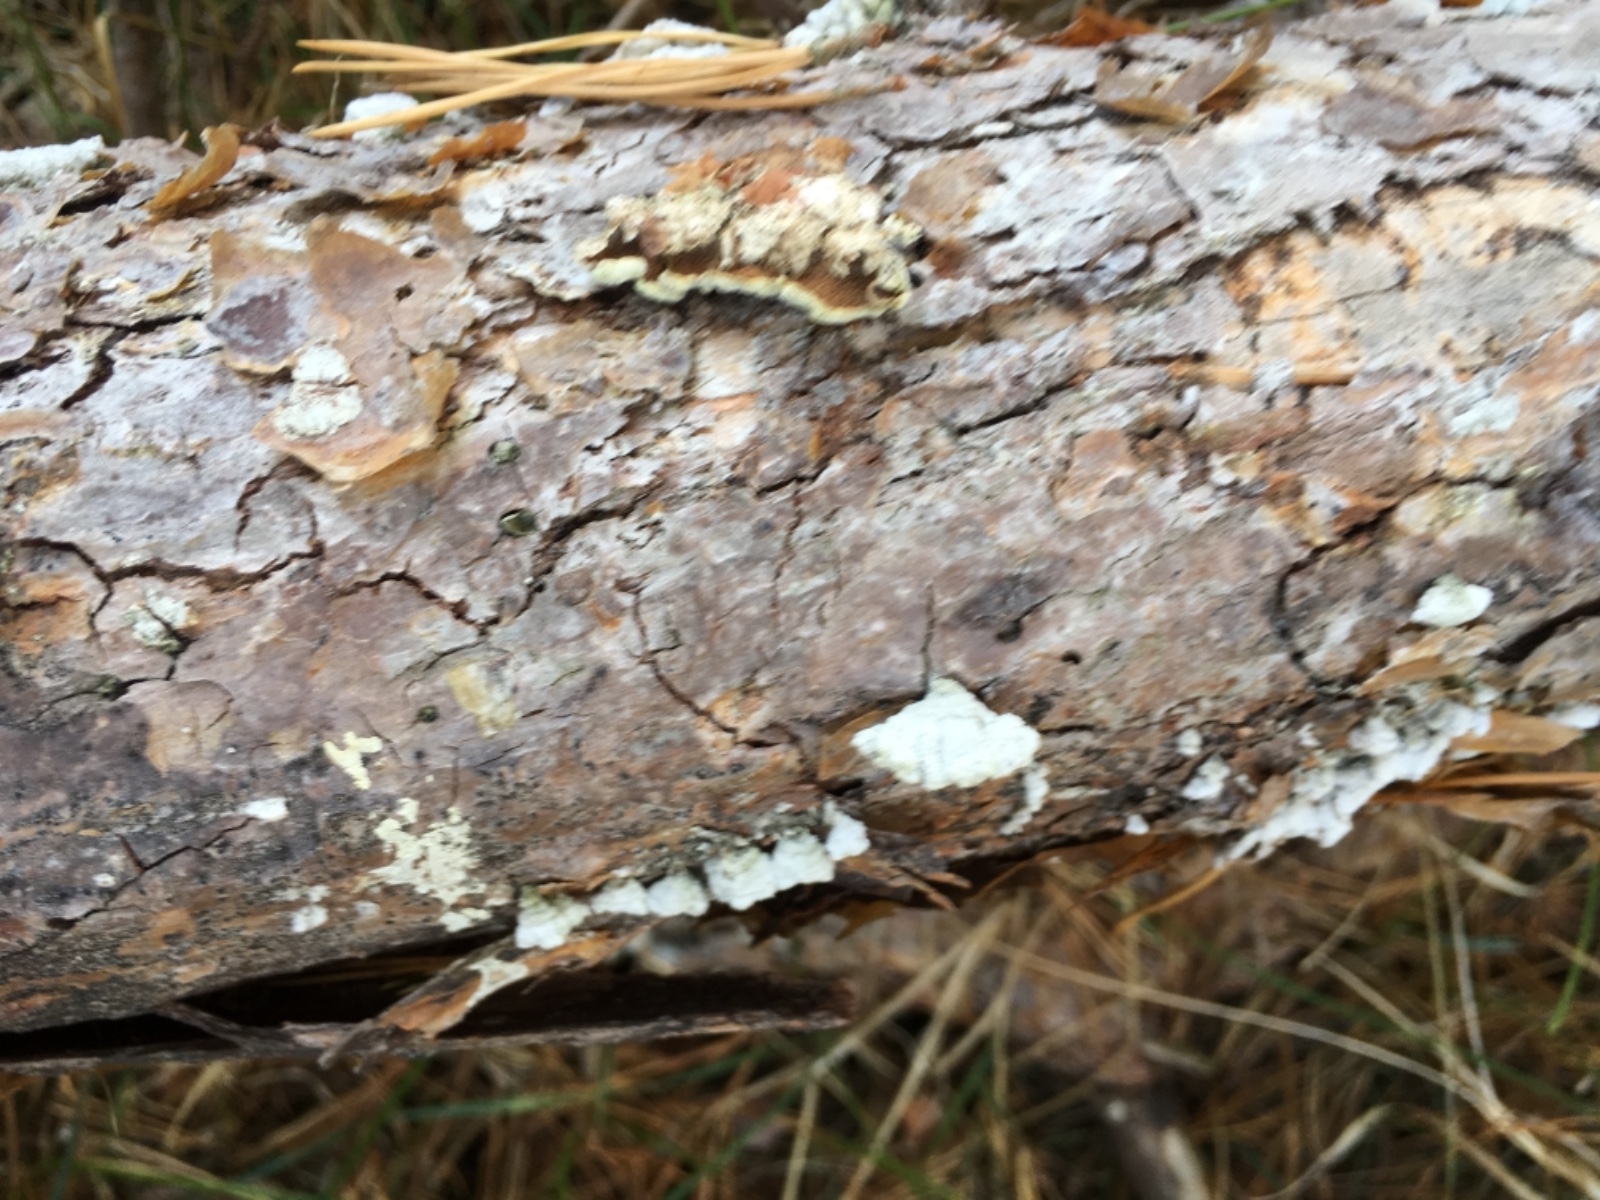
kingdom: Fungi
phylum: Basidiomycota
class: Agaricomycetes
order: Hymenochaetales
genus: Trichaptum
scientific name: Trichaptum fuscoviolaceum
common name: tandet violporesvamp
